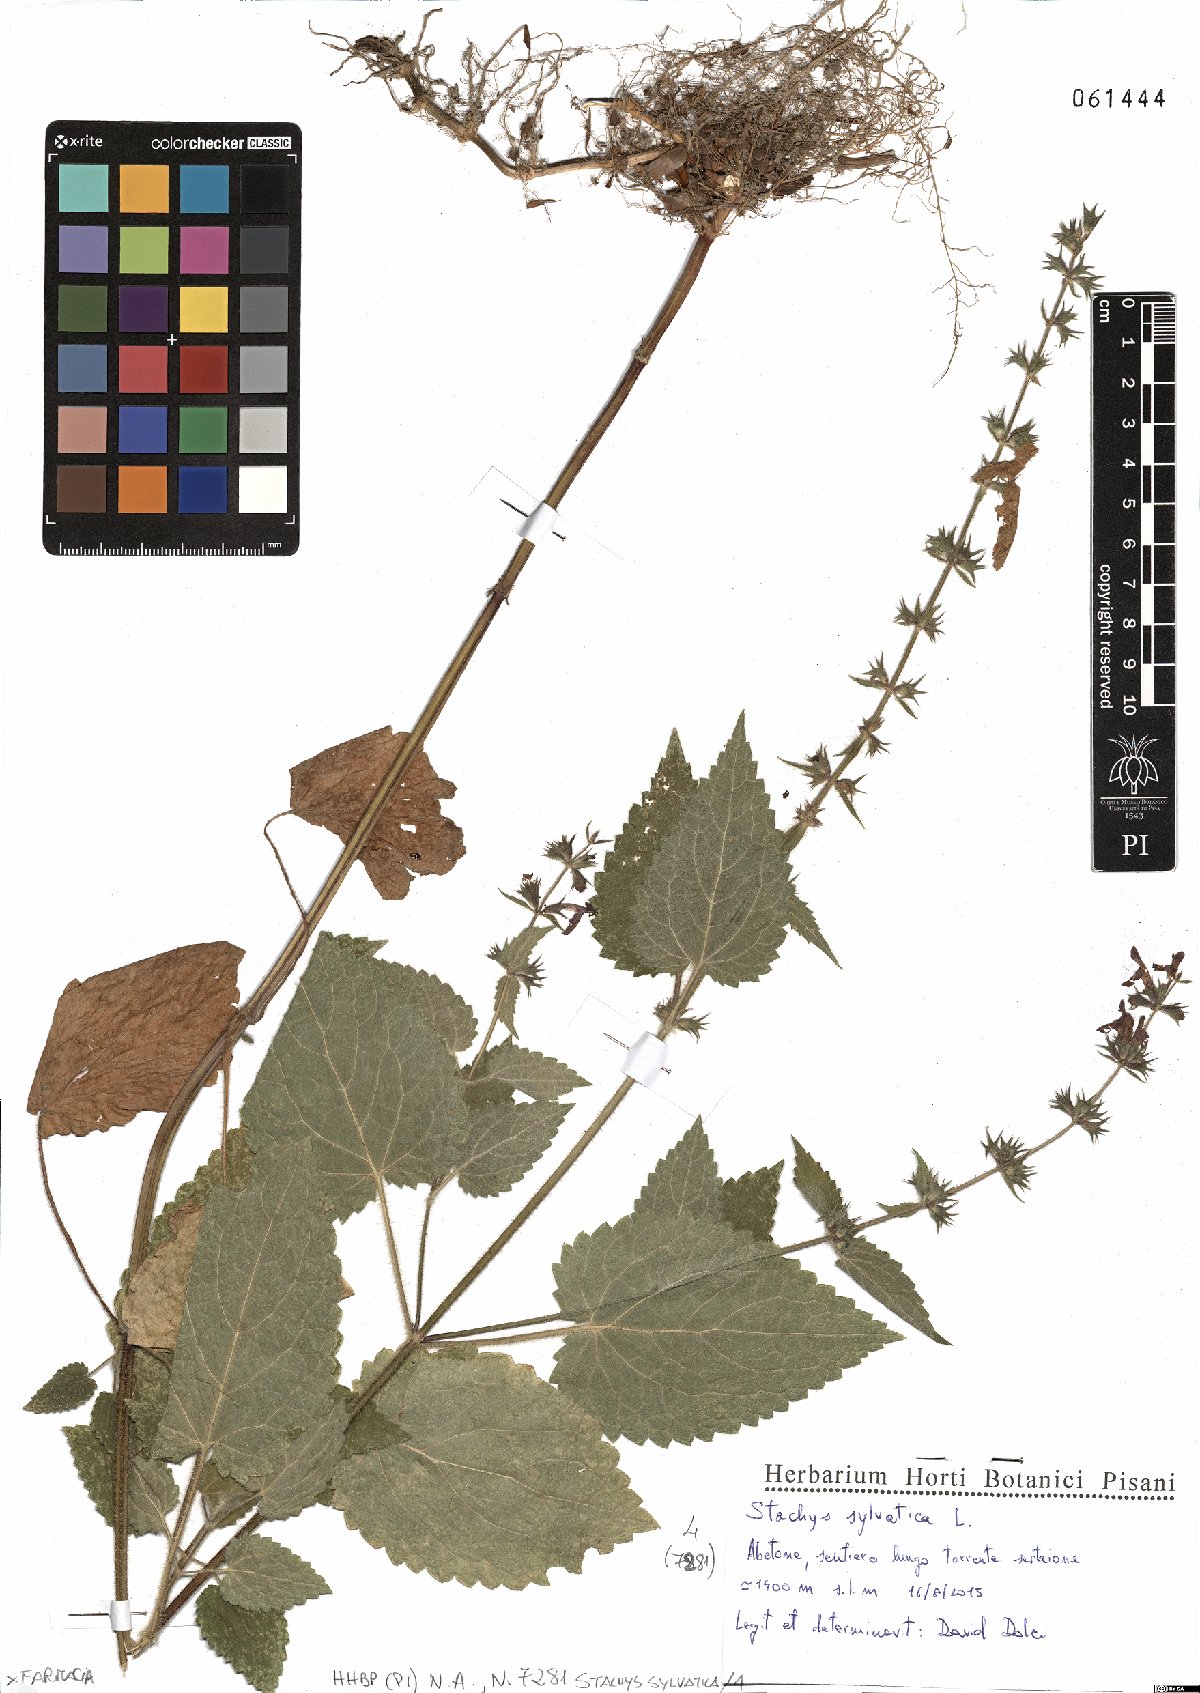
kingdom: Plantae
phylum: Tracheophyta
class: Magnoliopsida
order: Lamiales
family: Lamiaceae
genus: Stachys
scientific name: Stachys sylvatica
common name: Hedge woundwort
